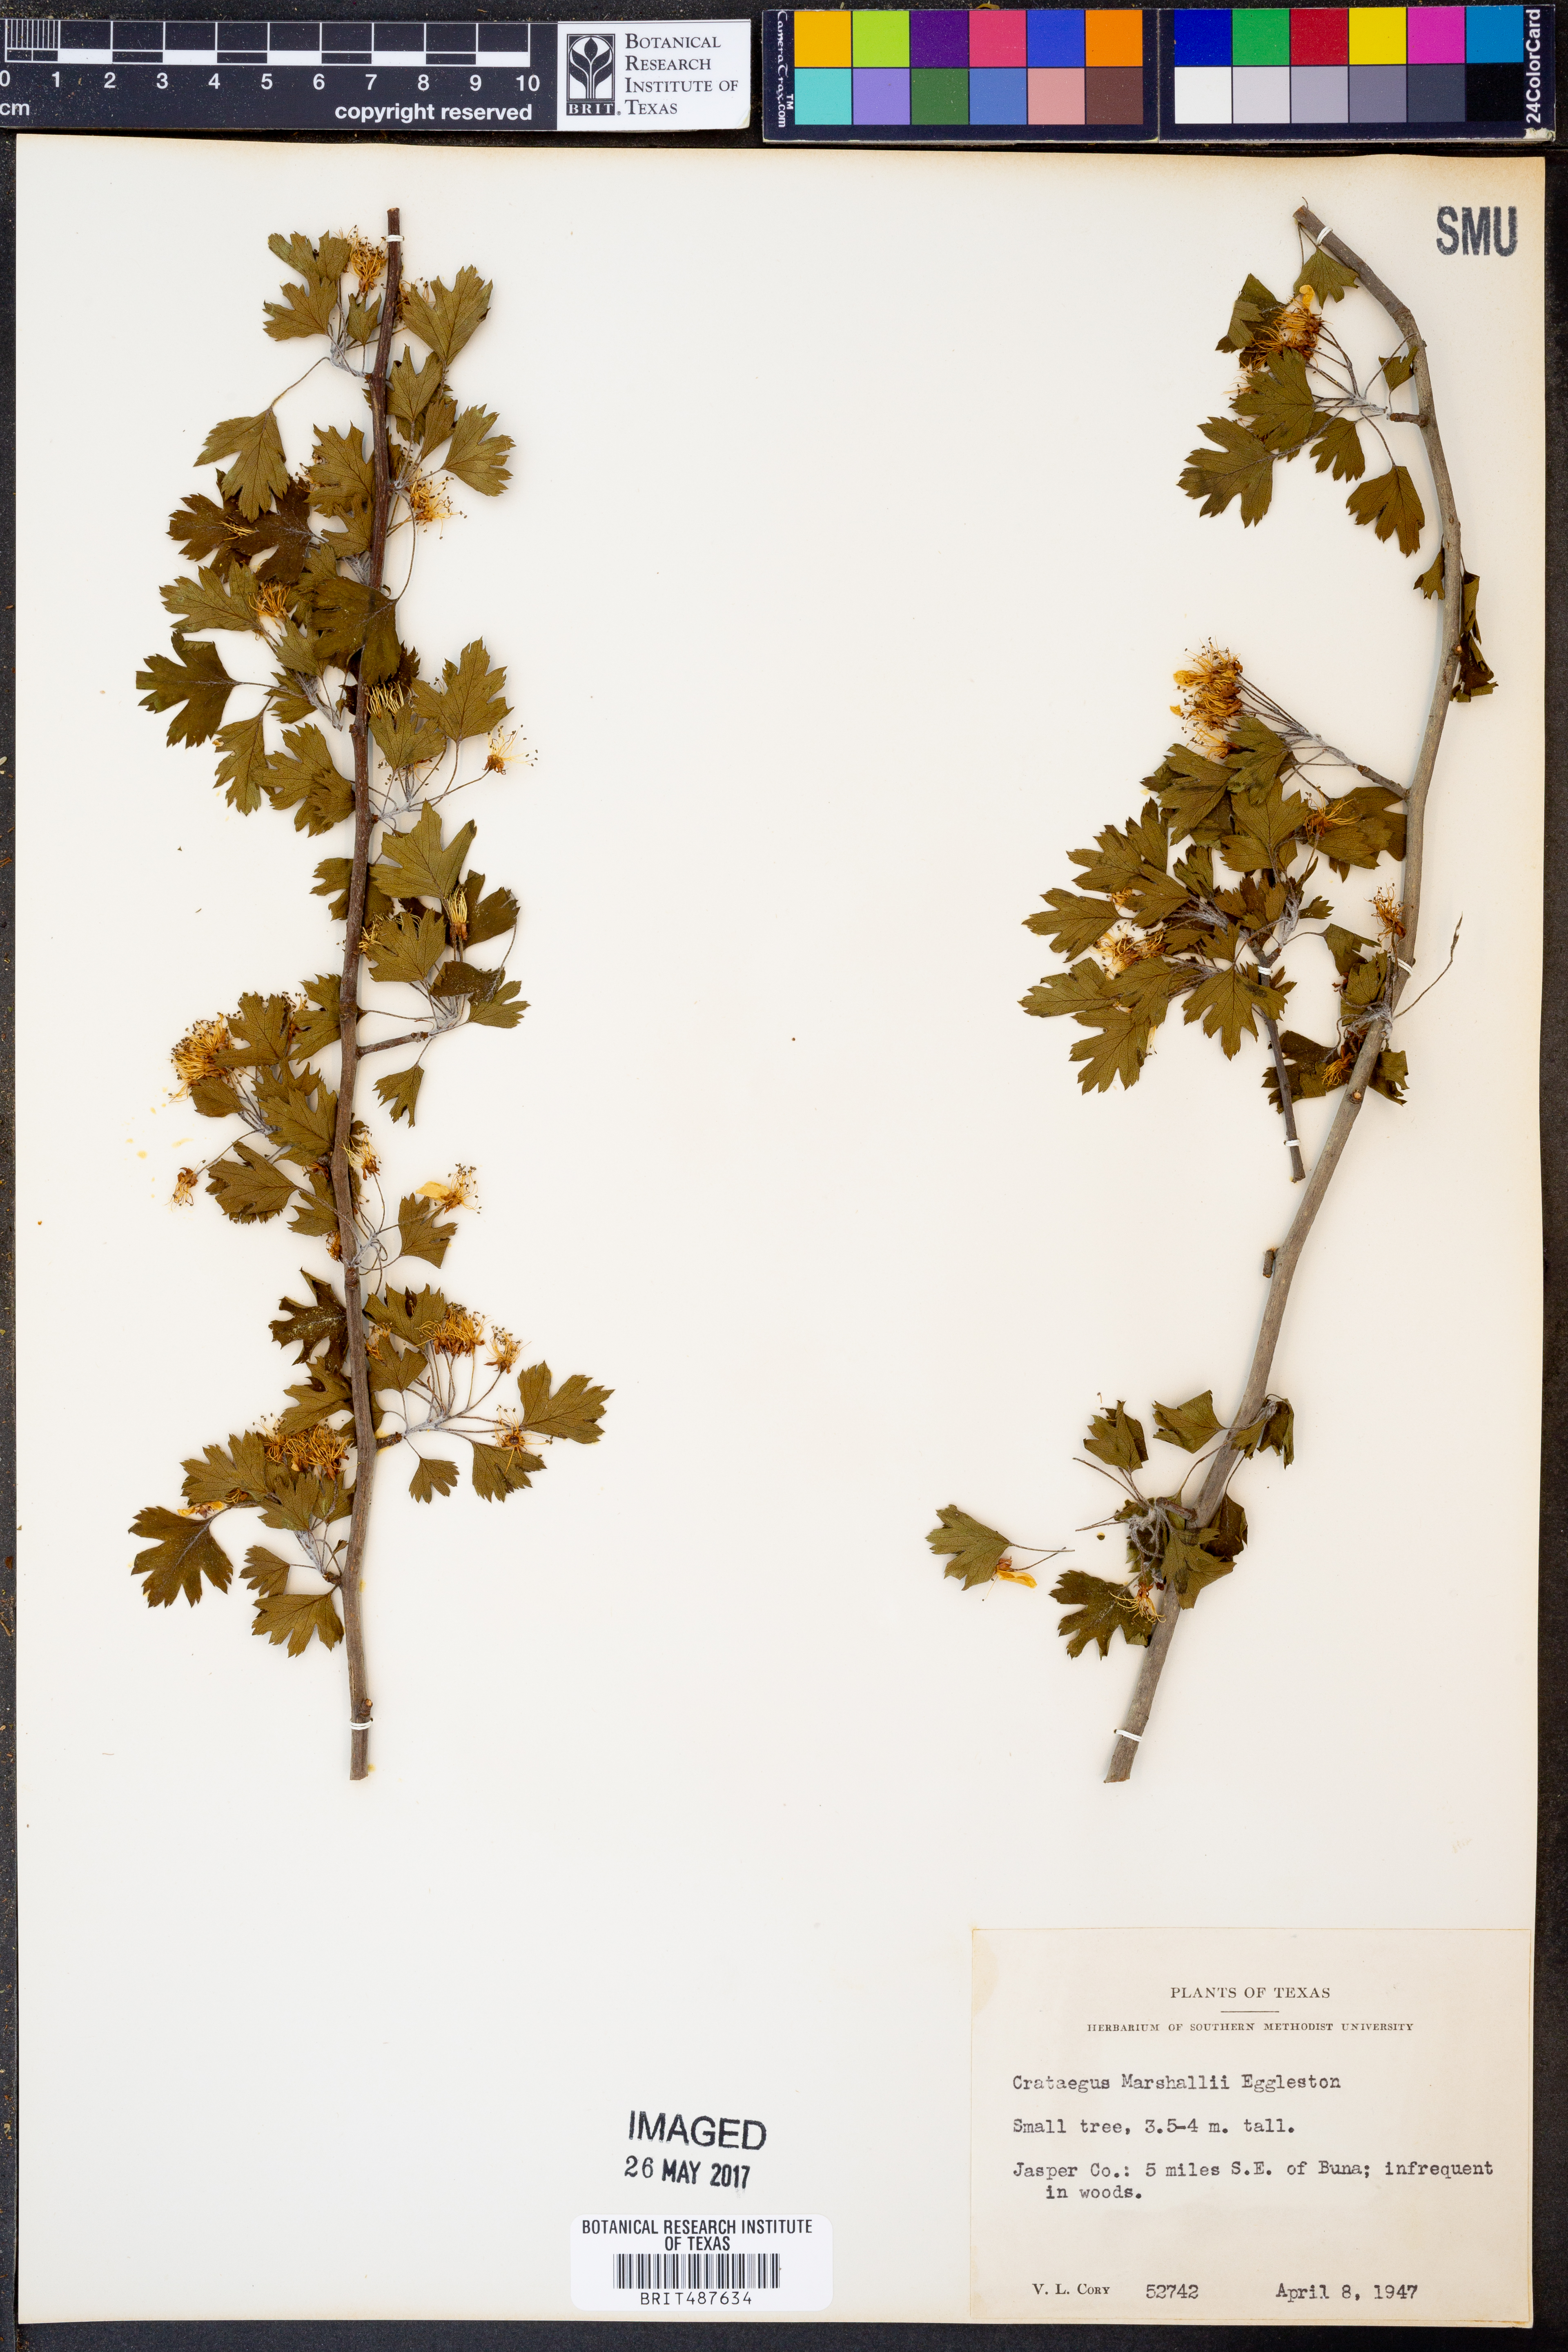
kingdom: Plantae
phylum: Tracheophyta
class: Magnoliopsida
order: Rosales
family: Rosaceae
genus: Crataegus
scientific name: Crataegus marshallii
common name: Parsley-hawthorn
